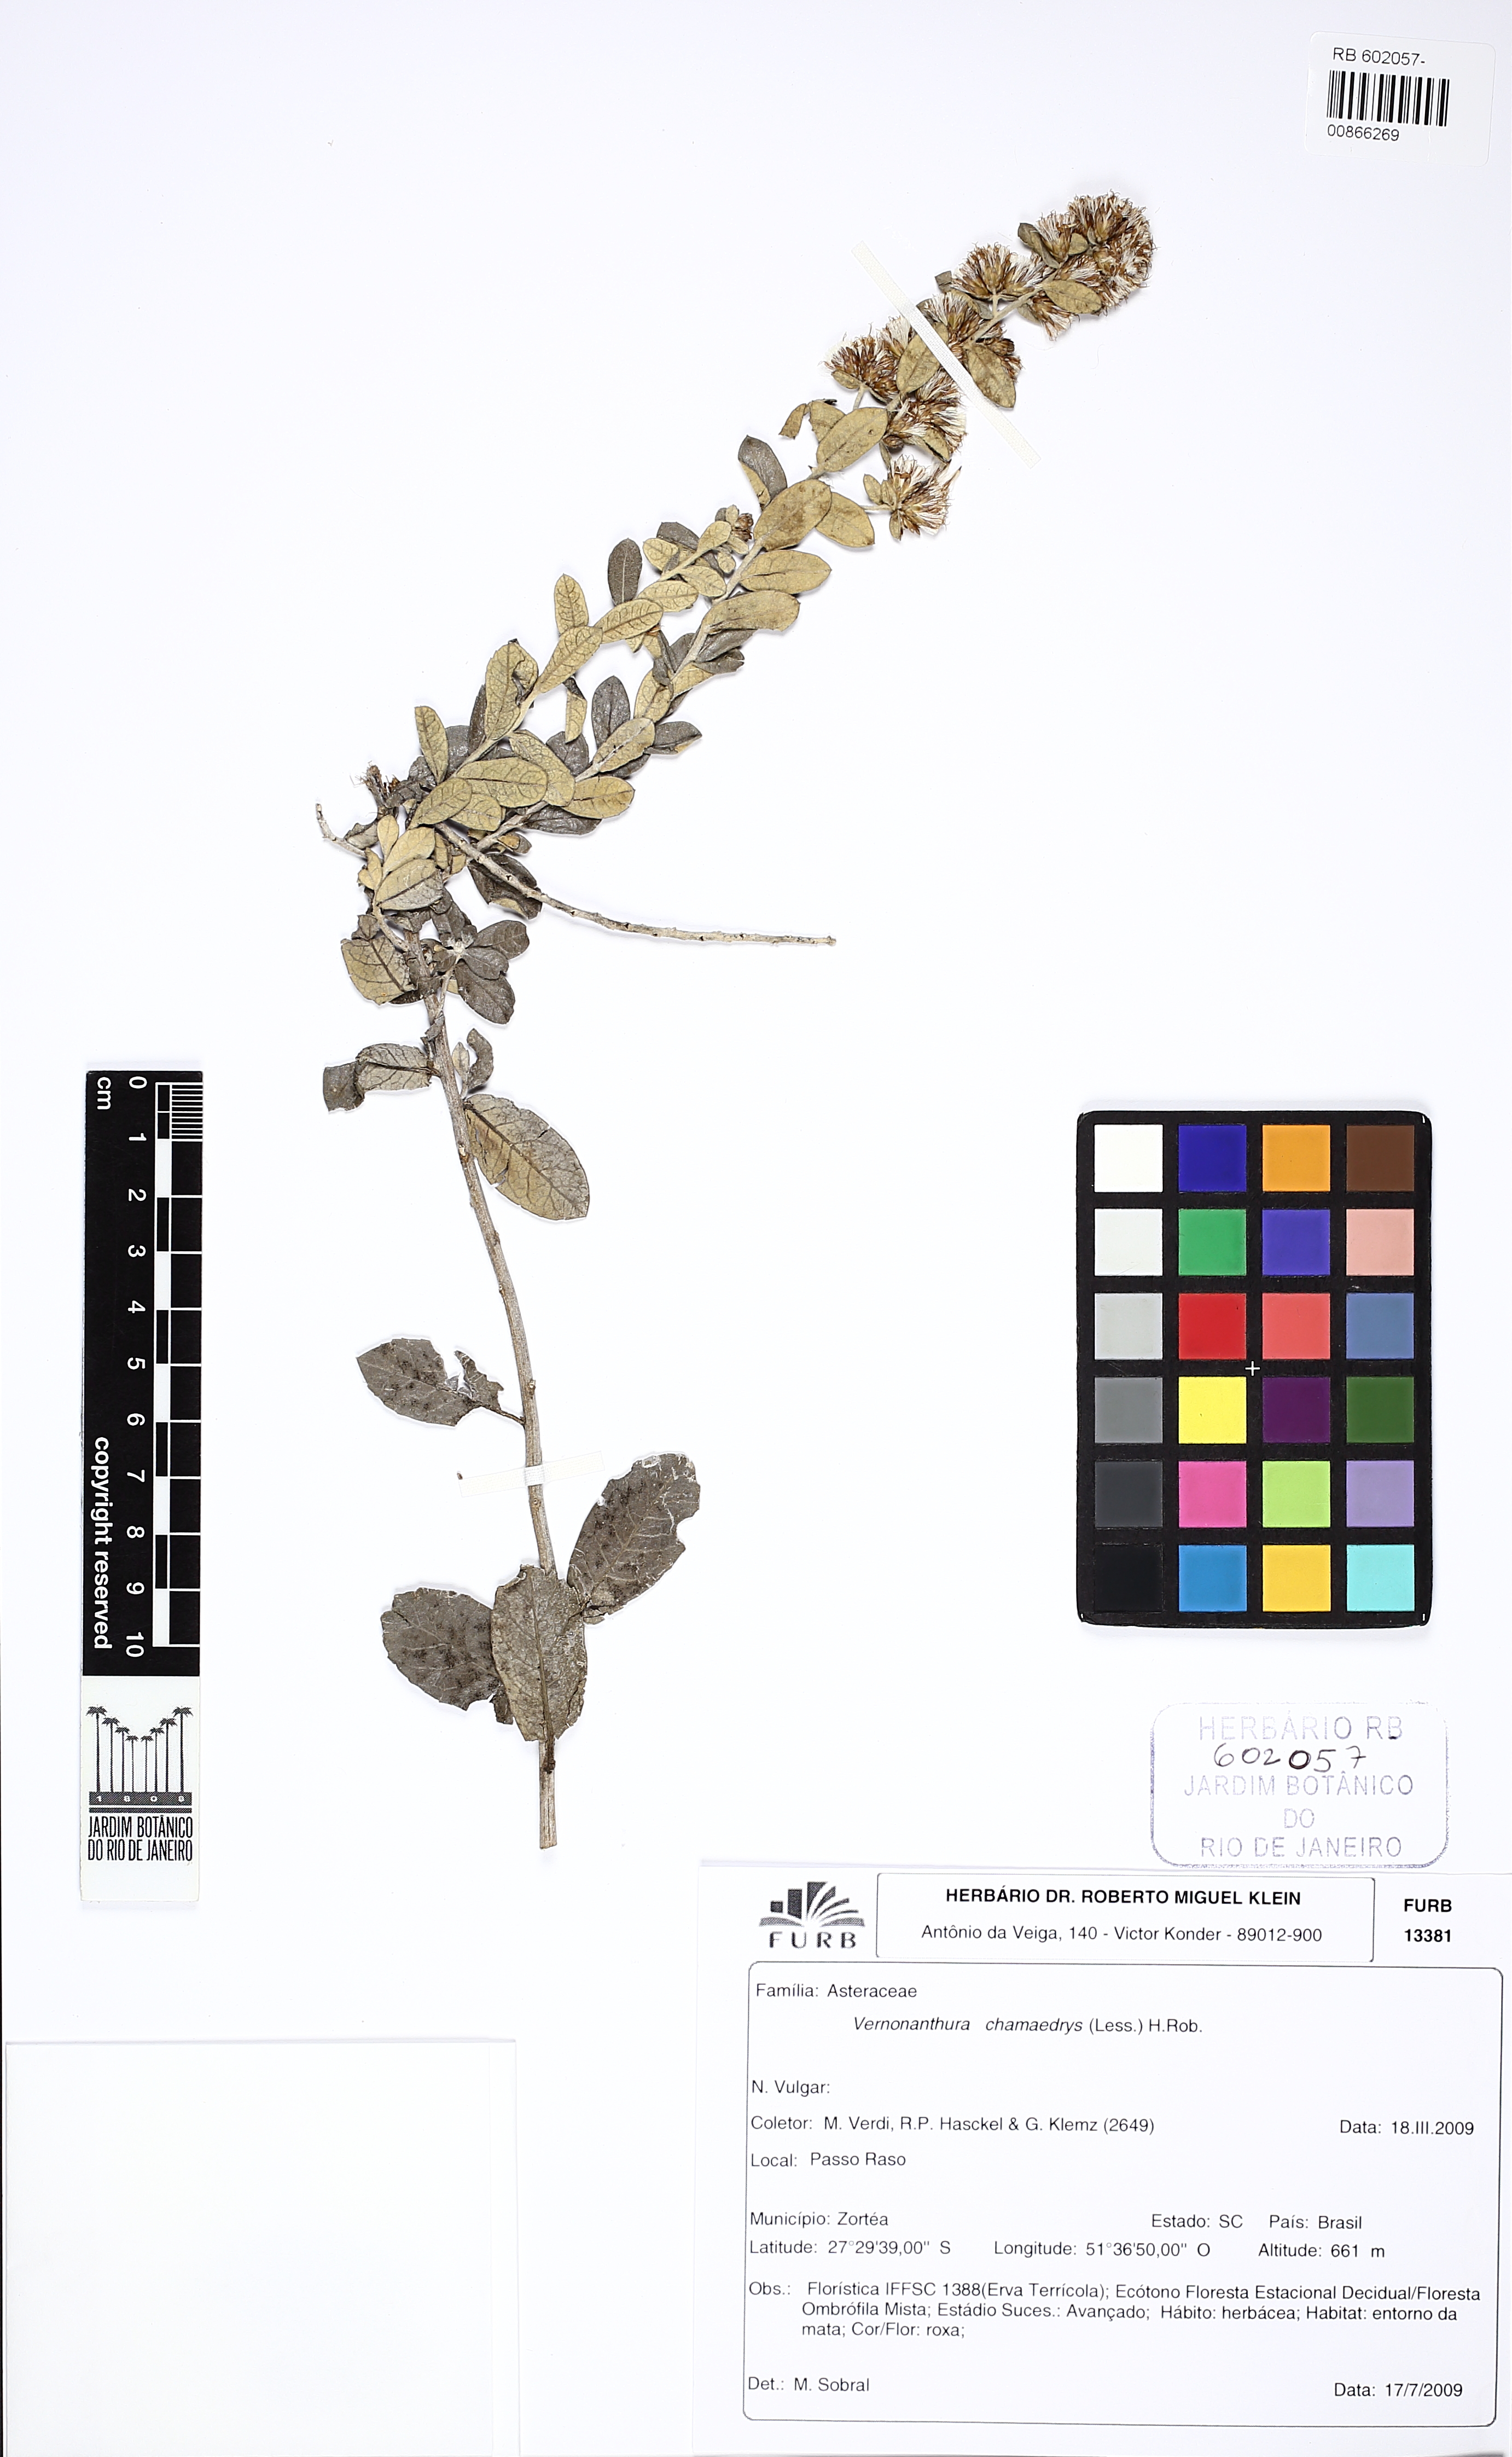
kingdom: Plantae
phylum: Tracheophyta
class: Magnoliopsida
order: Asterales
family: Asteraceae
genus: Vernonanthura
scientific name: Vernonanthura chamaedrys
